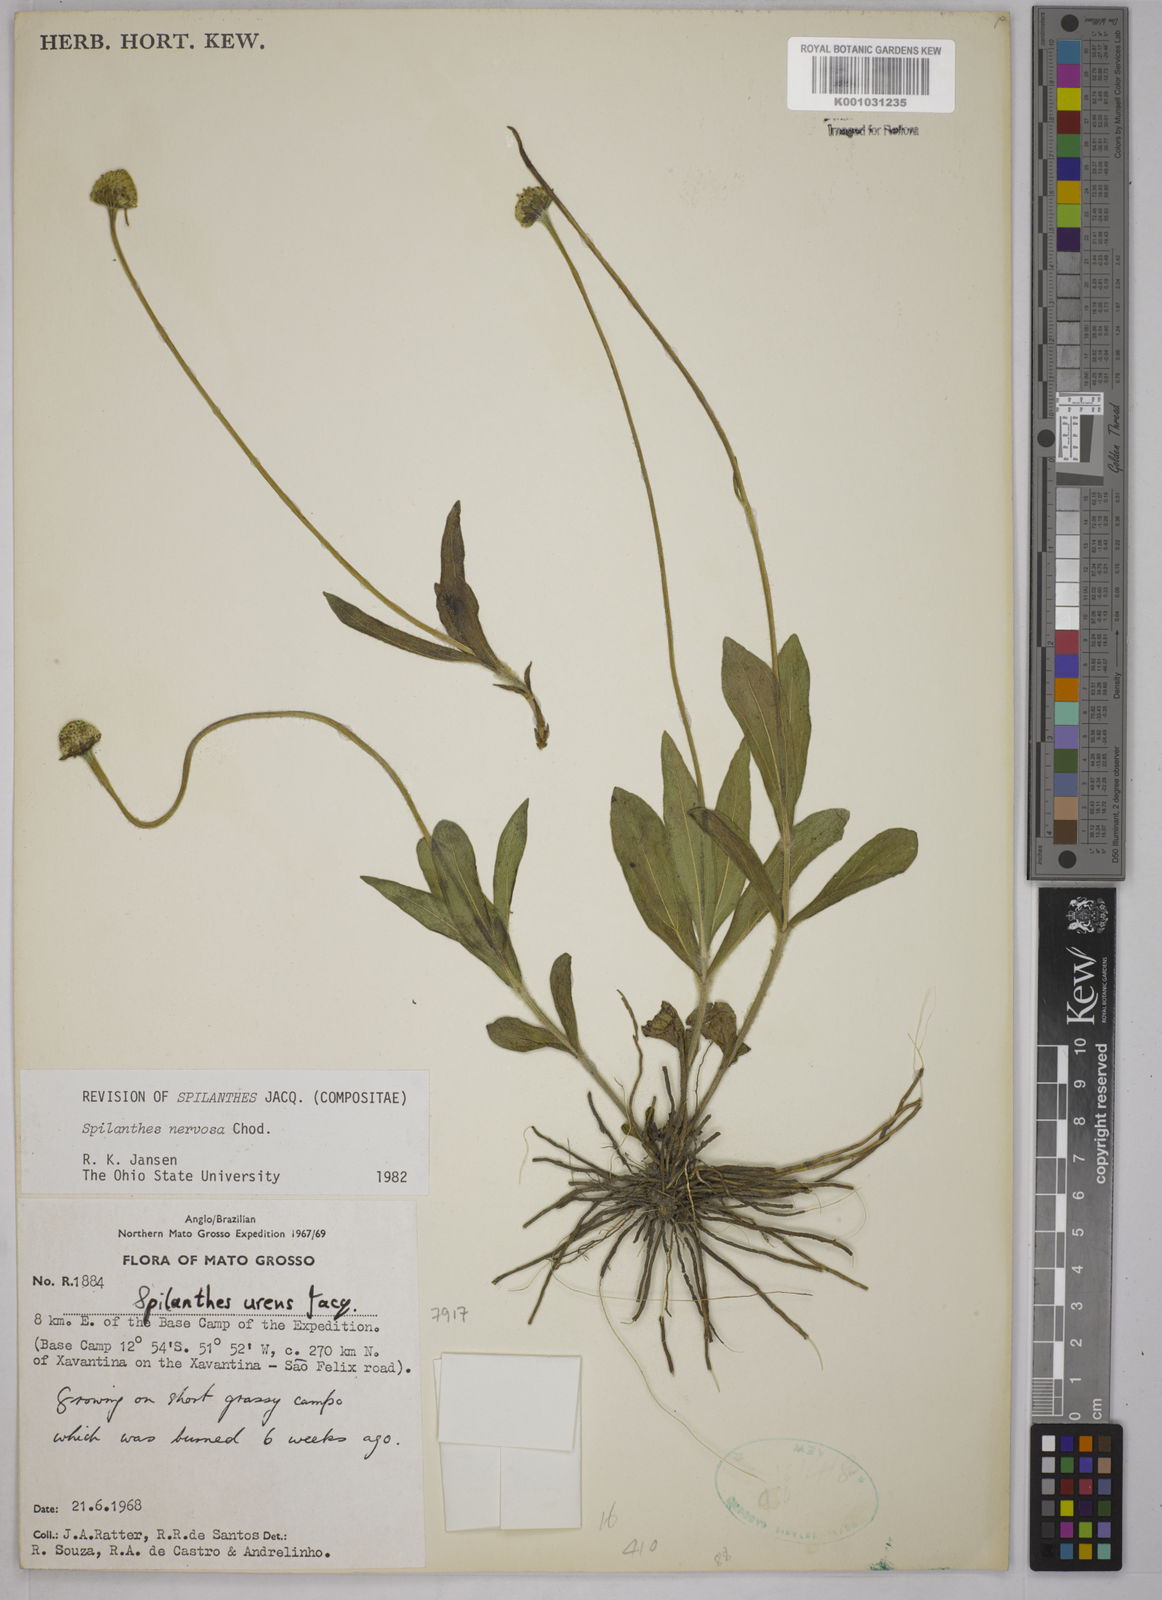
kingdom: Plantae
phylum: Tracheophyta
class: Magnoliopsida
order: Asterales
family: Asteraceae
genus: Spilanthes
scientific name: Spilanthes nervosa
